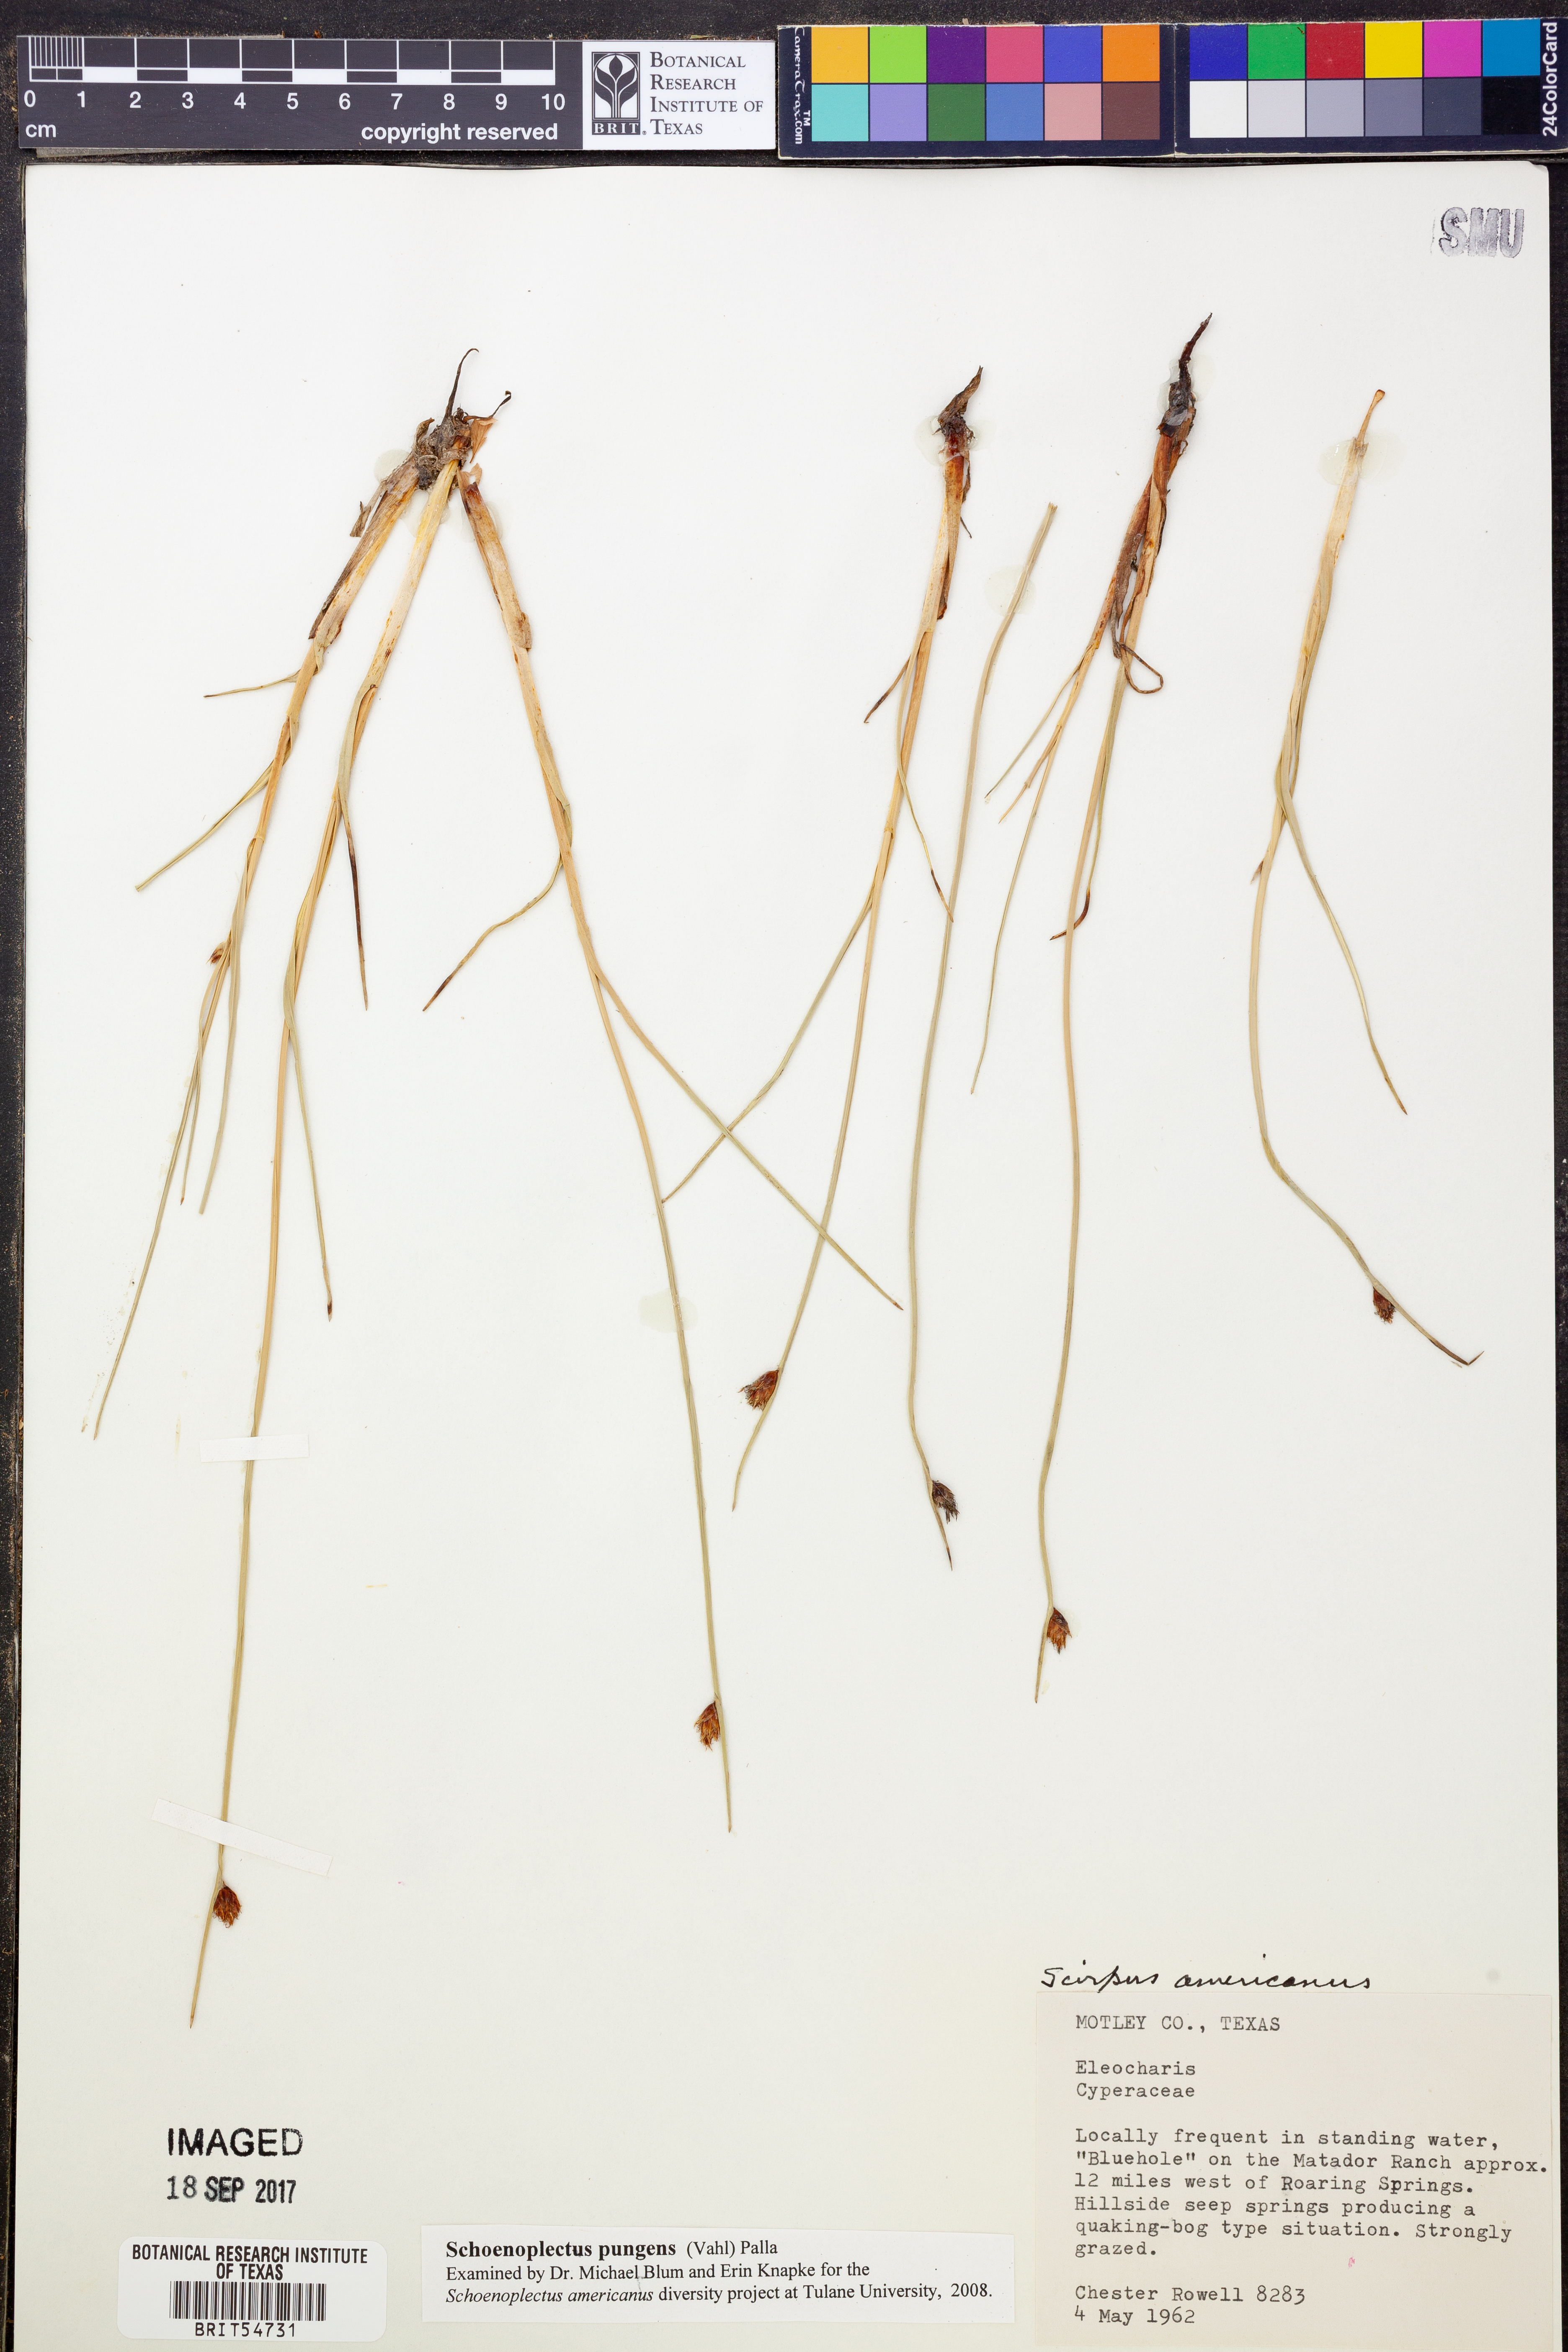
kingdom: Plantae
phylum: Tracheophyta
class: Liliopsida
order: Poales
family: Cyperaceae
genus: Schoenoplectus
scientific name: Schoenoplectus pungens
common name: Sharp club-rush
